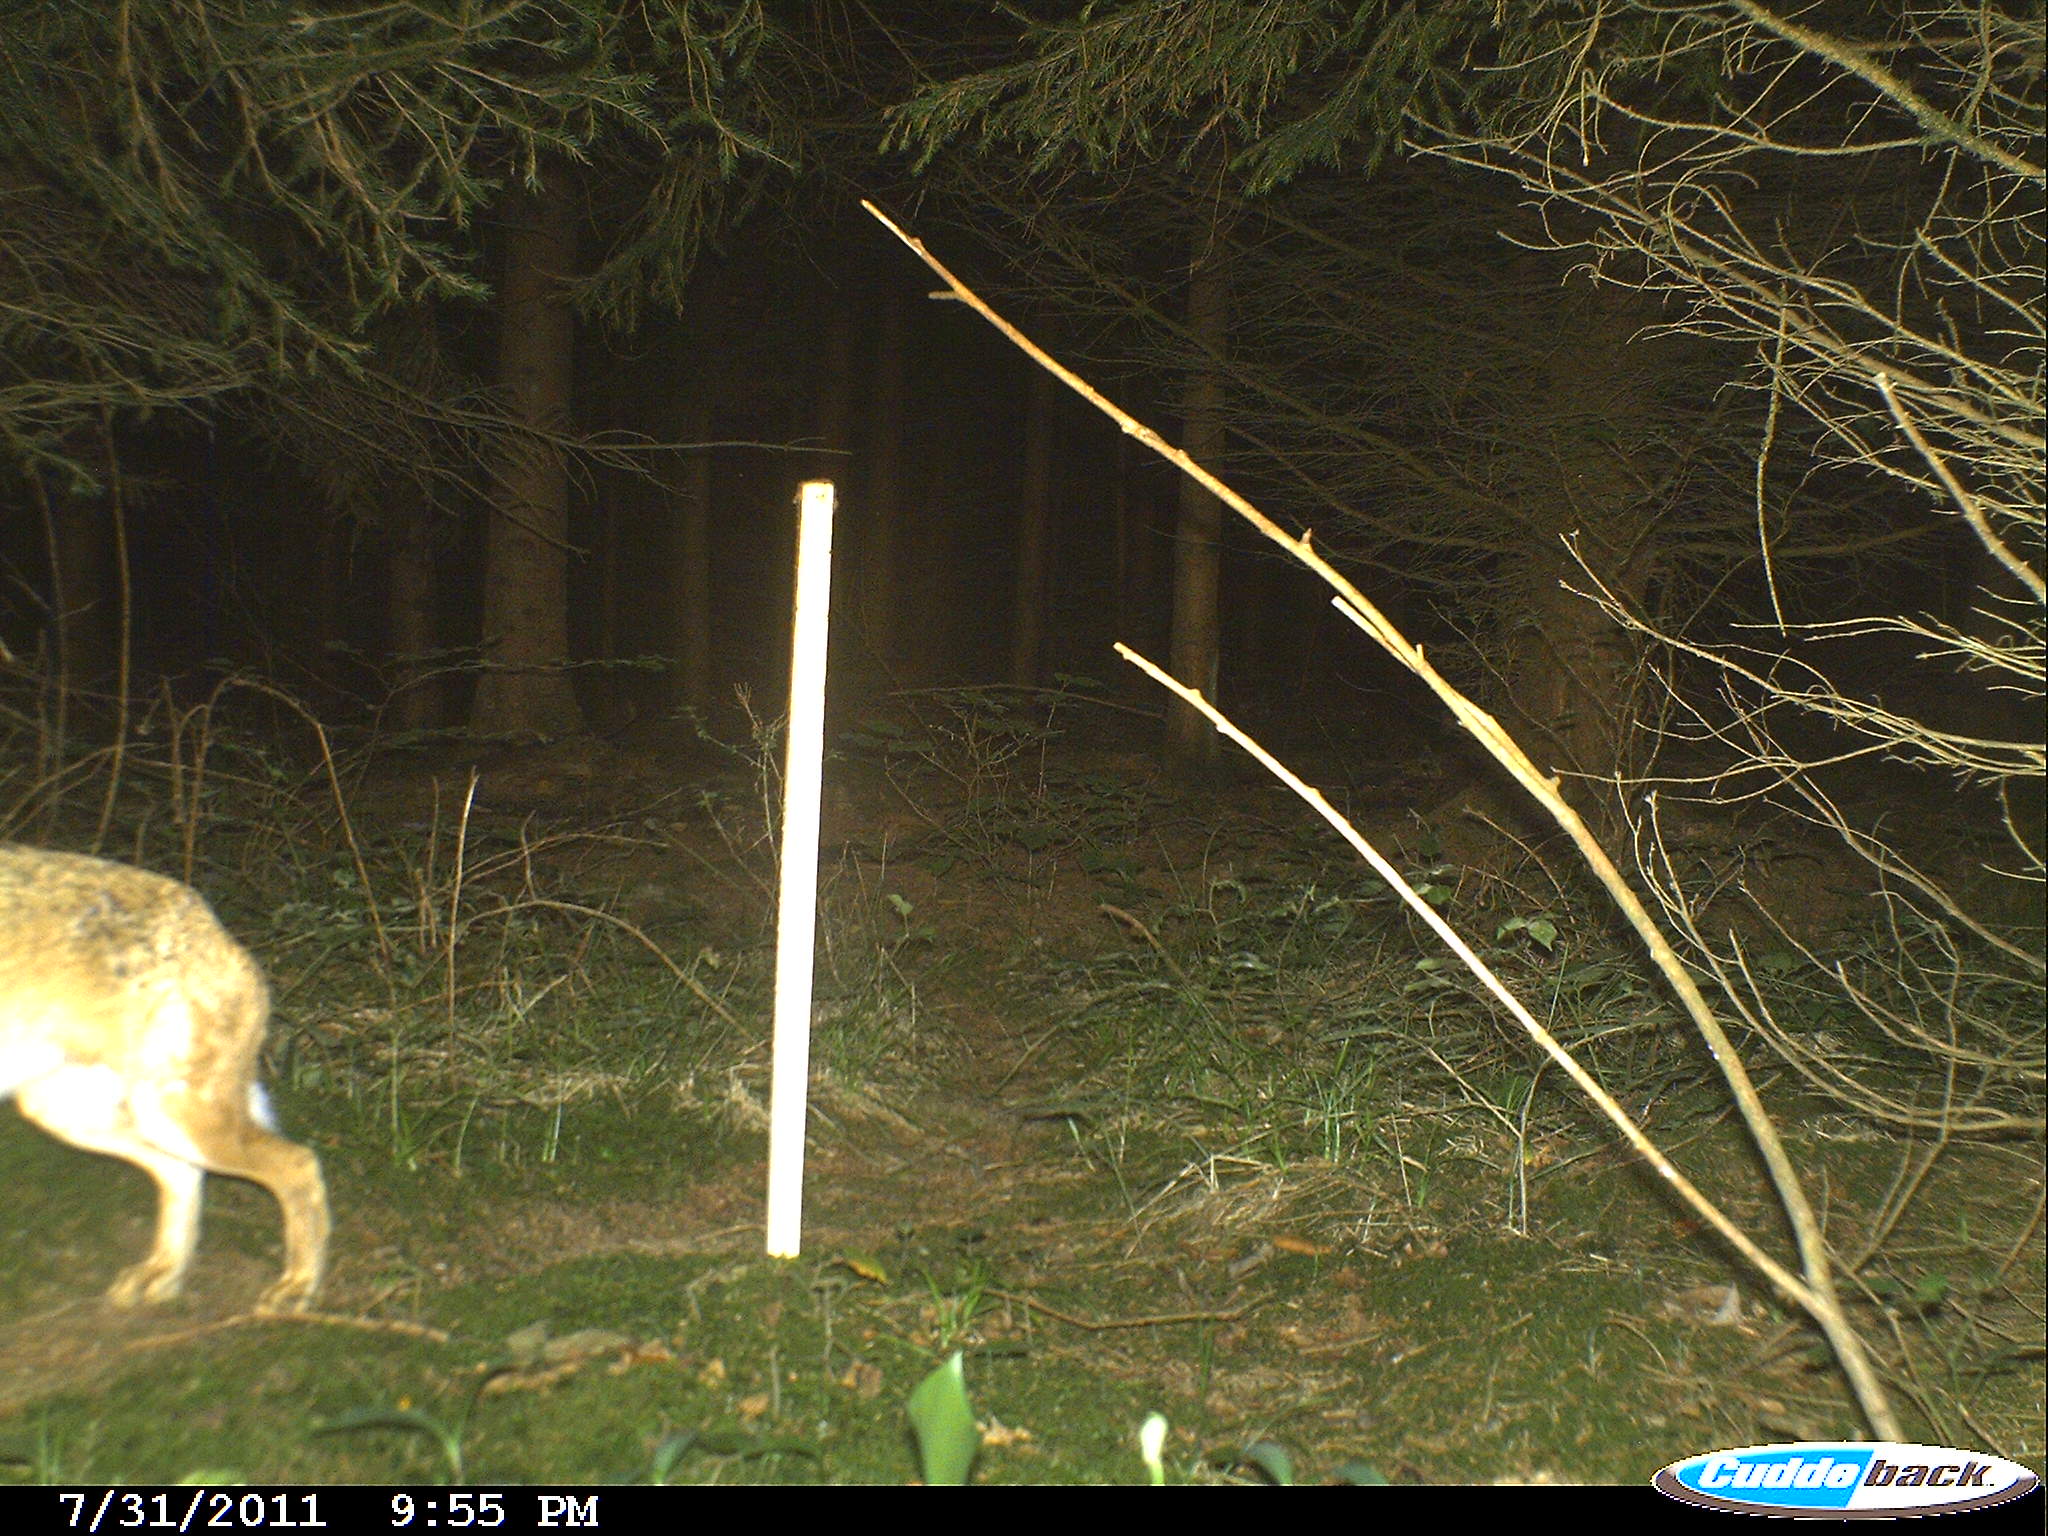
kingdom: Animalia
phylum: Chordata
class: Mammalia
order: Lagomorpha
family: Leporidae
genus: Lepus
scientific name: Lepus europaeus
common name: European hare
